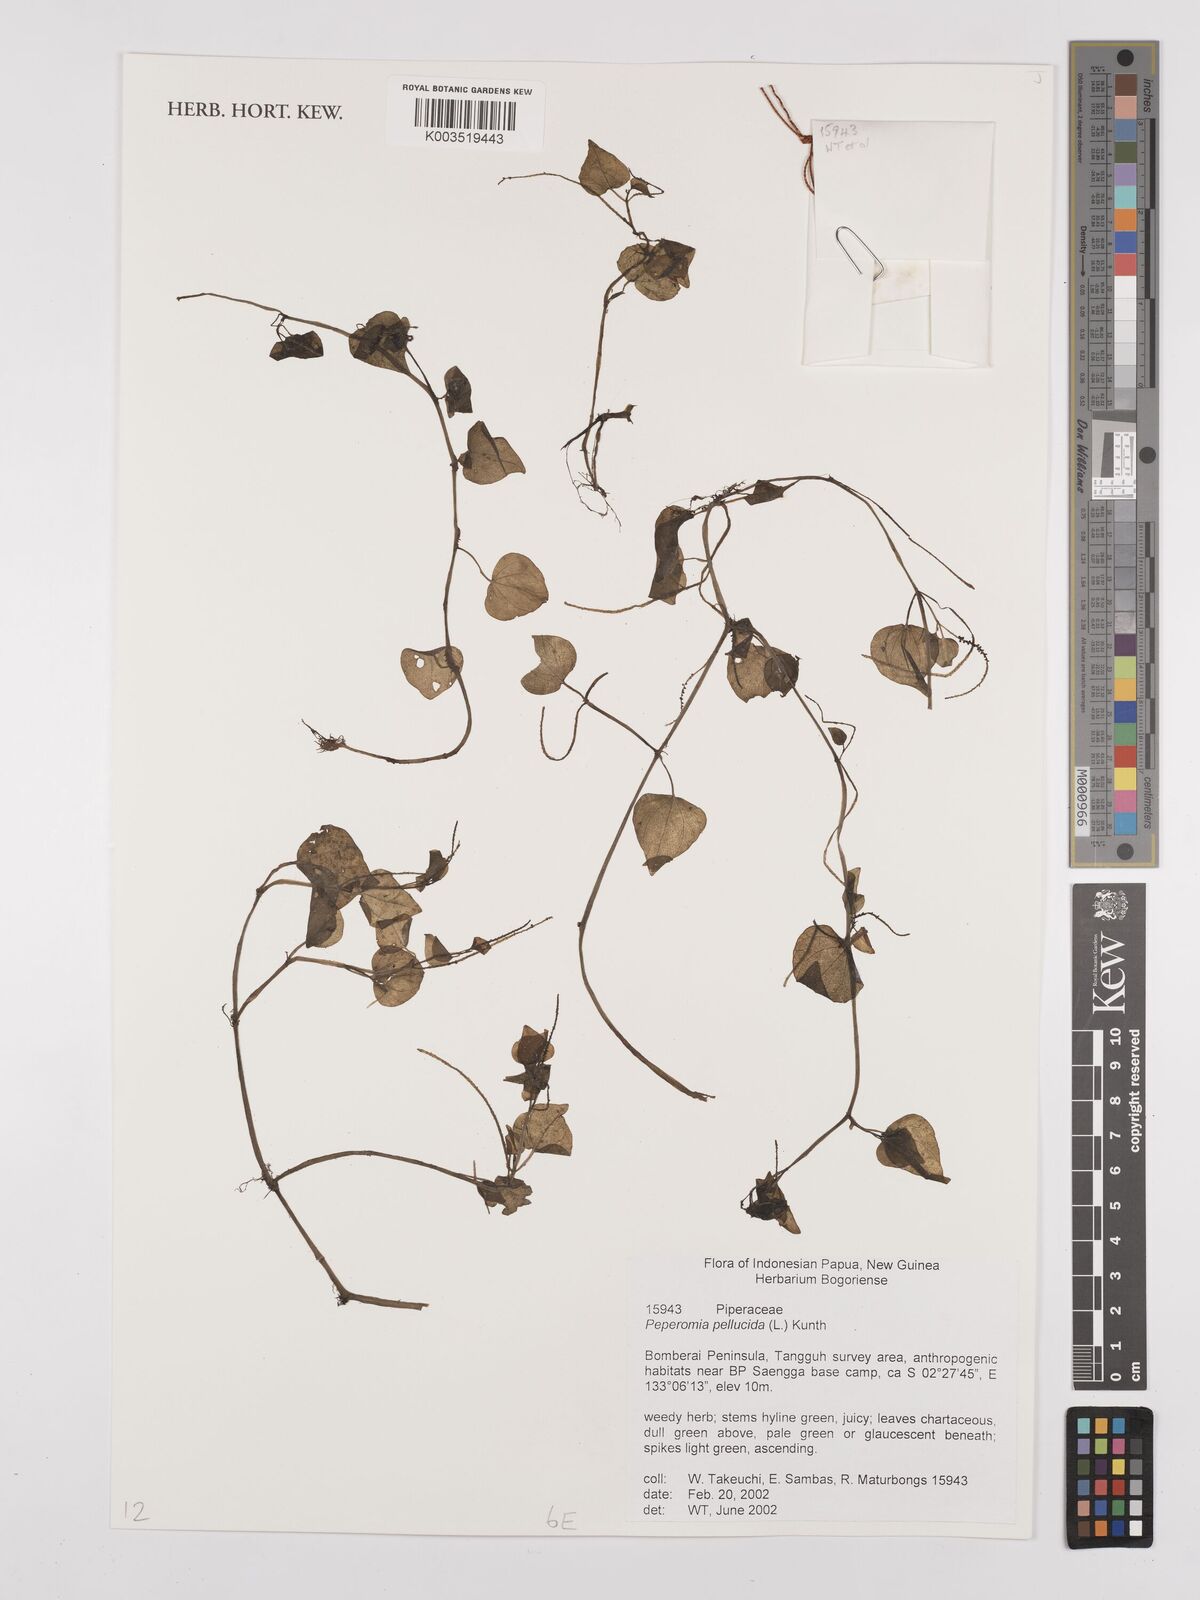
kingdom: Plantae
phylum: Tracheophyta
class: Magnoliopsida
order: Piperales
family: Piperaceae
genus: Peperomia
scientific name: Peperomia pellucida
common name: Man to man
